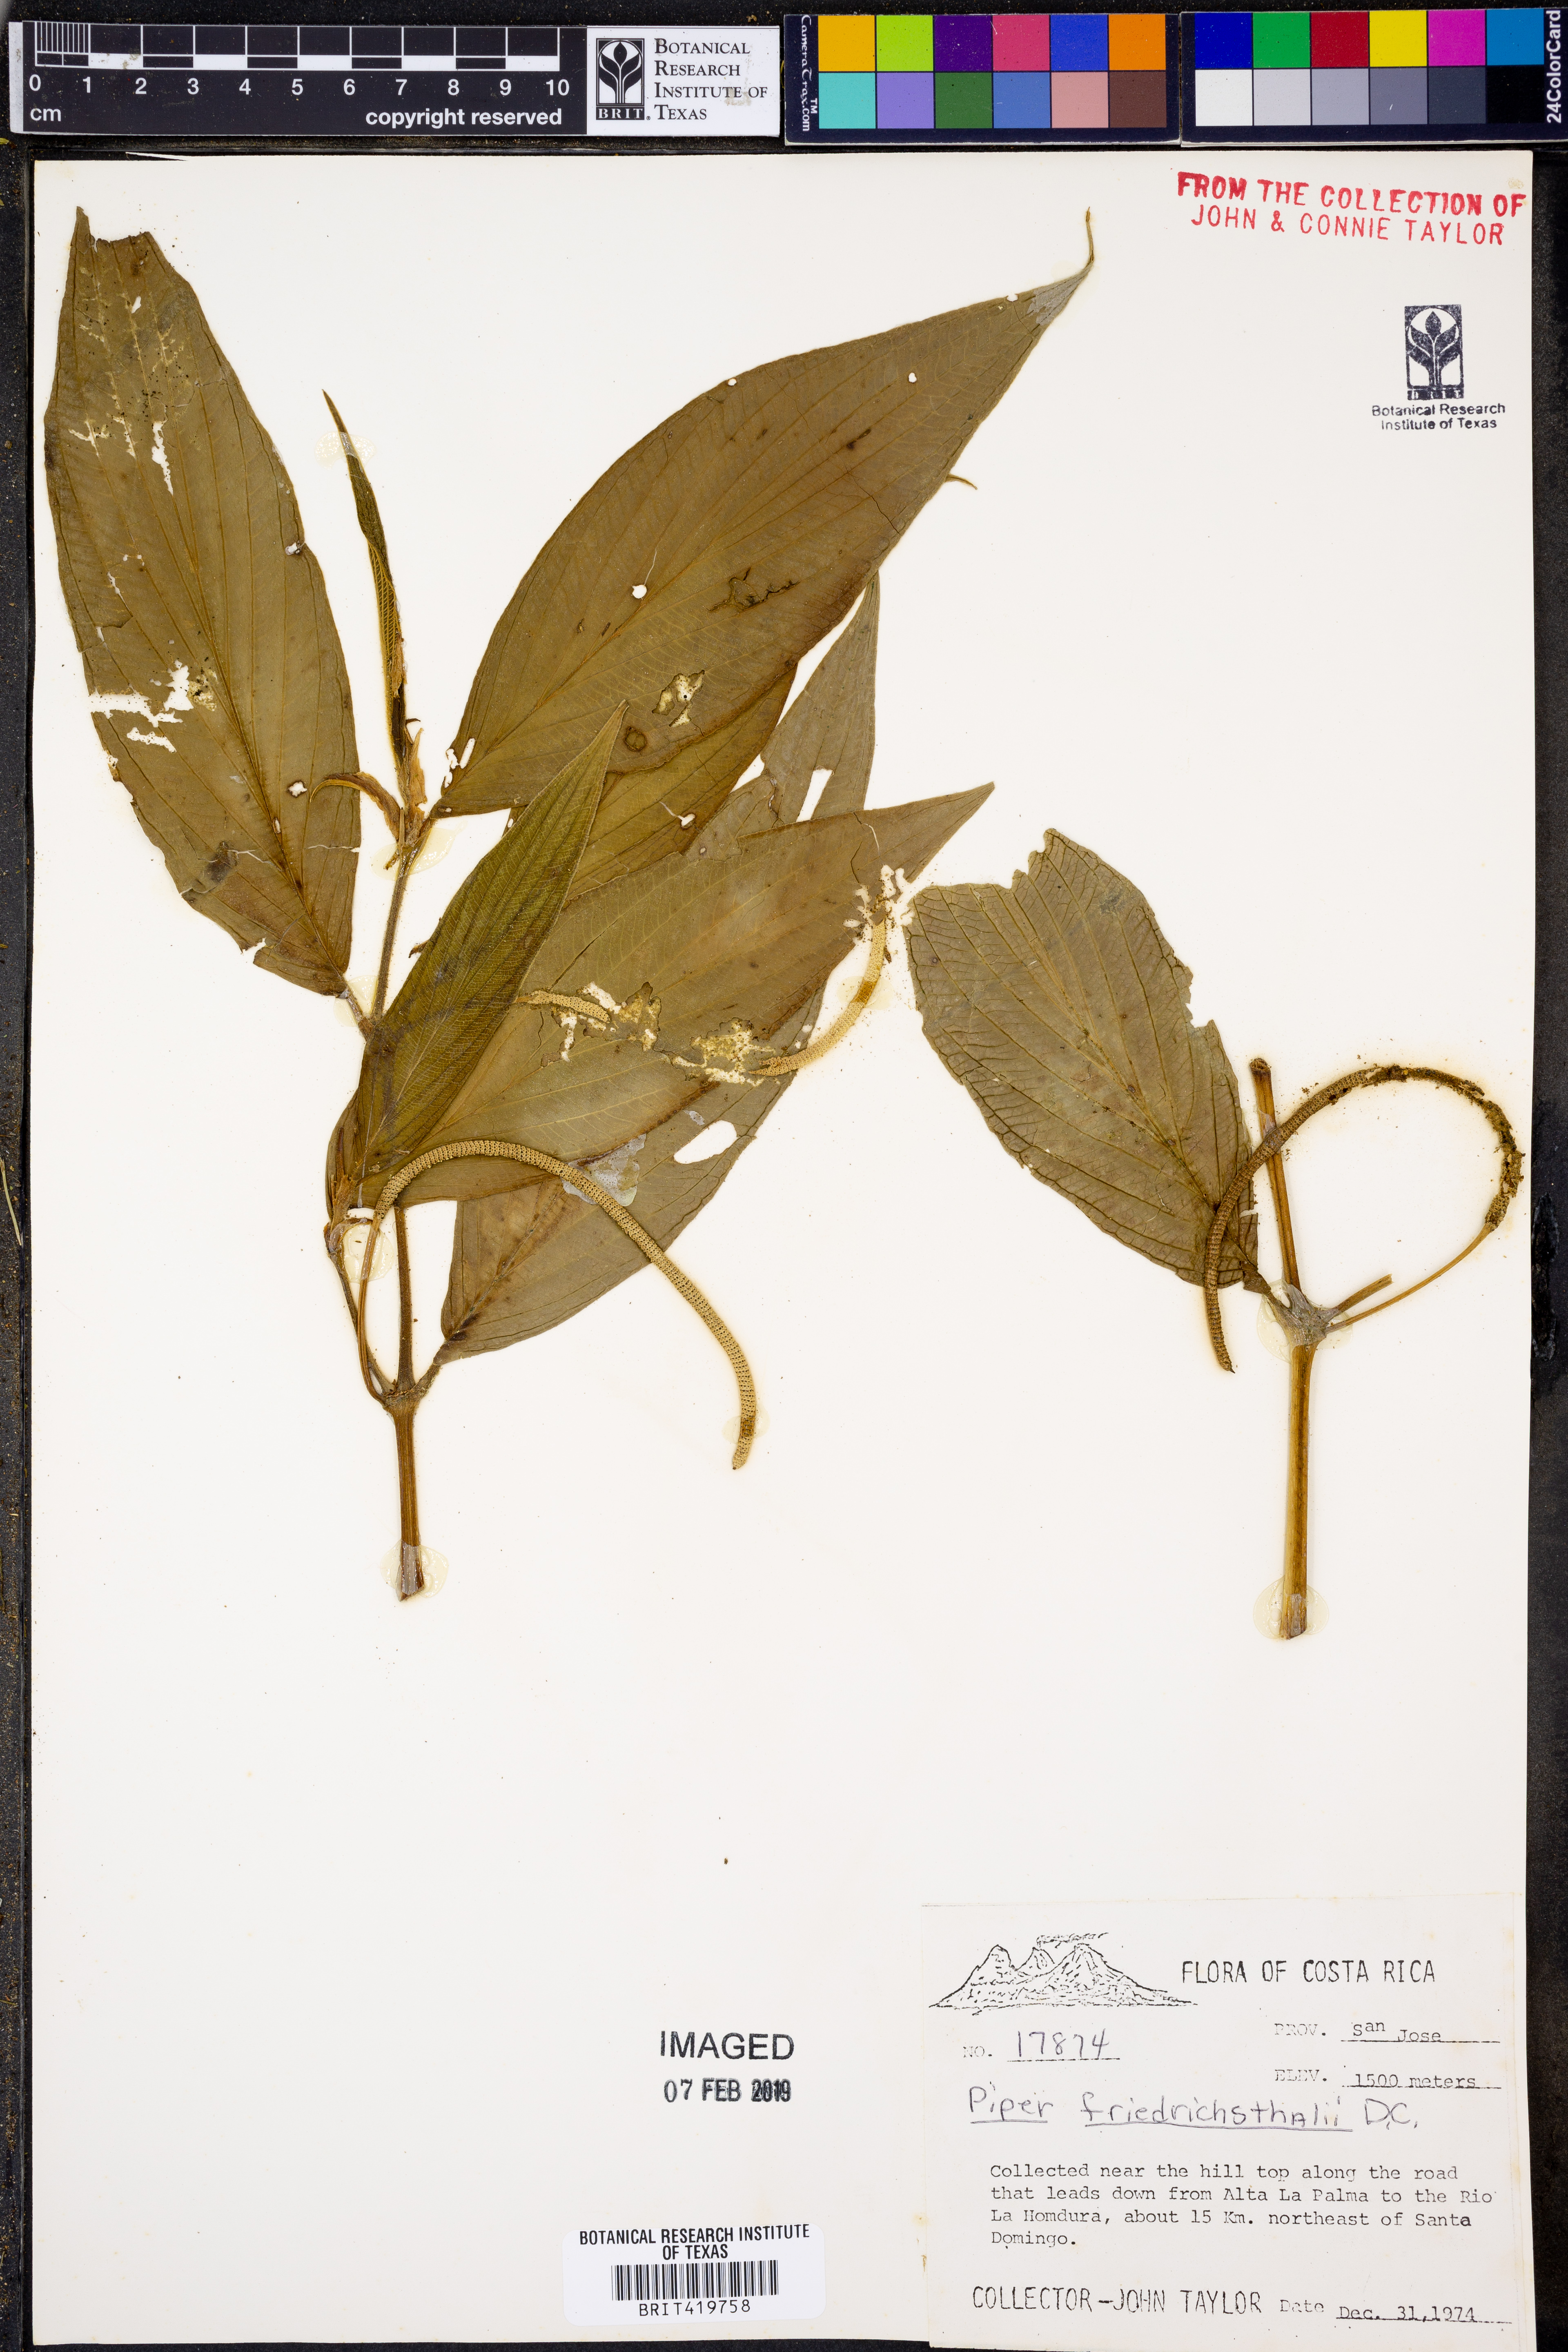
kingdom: Plantae
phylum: Tracheophyta
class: Magnoliopsida
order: Piperales
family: Piperaceae
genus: Piper
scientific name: Piper friedrichsthalii
